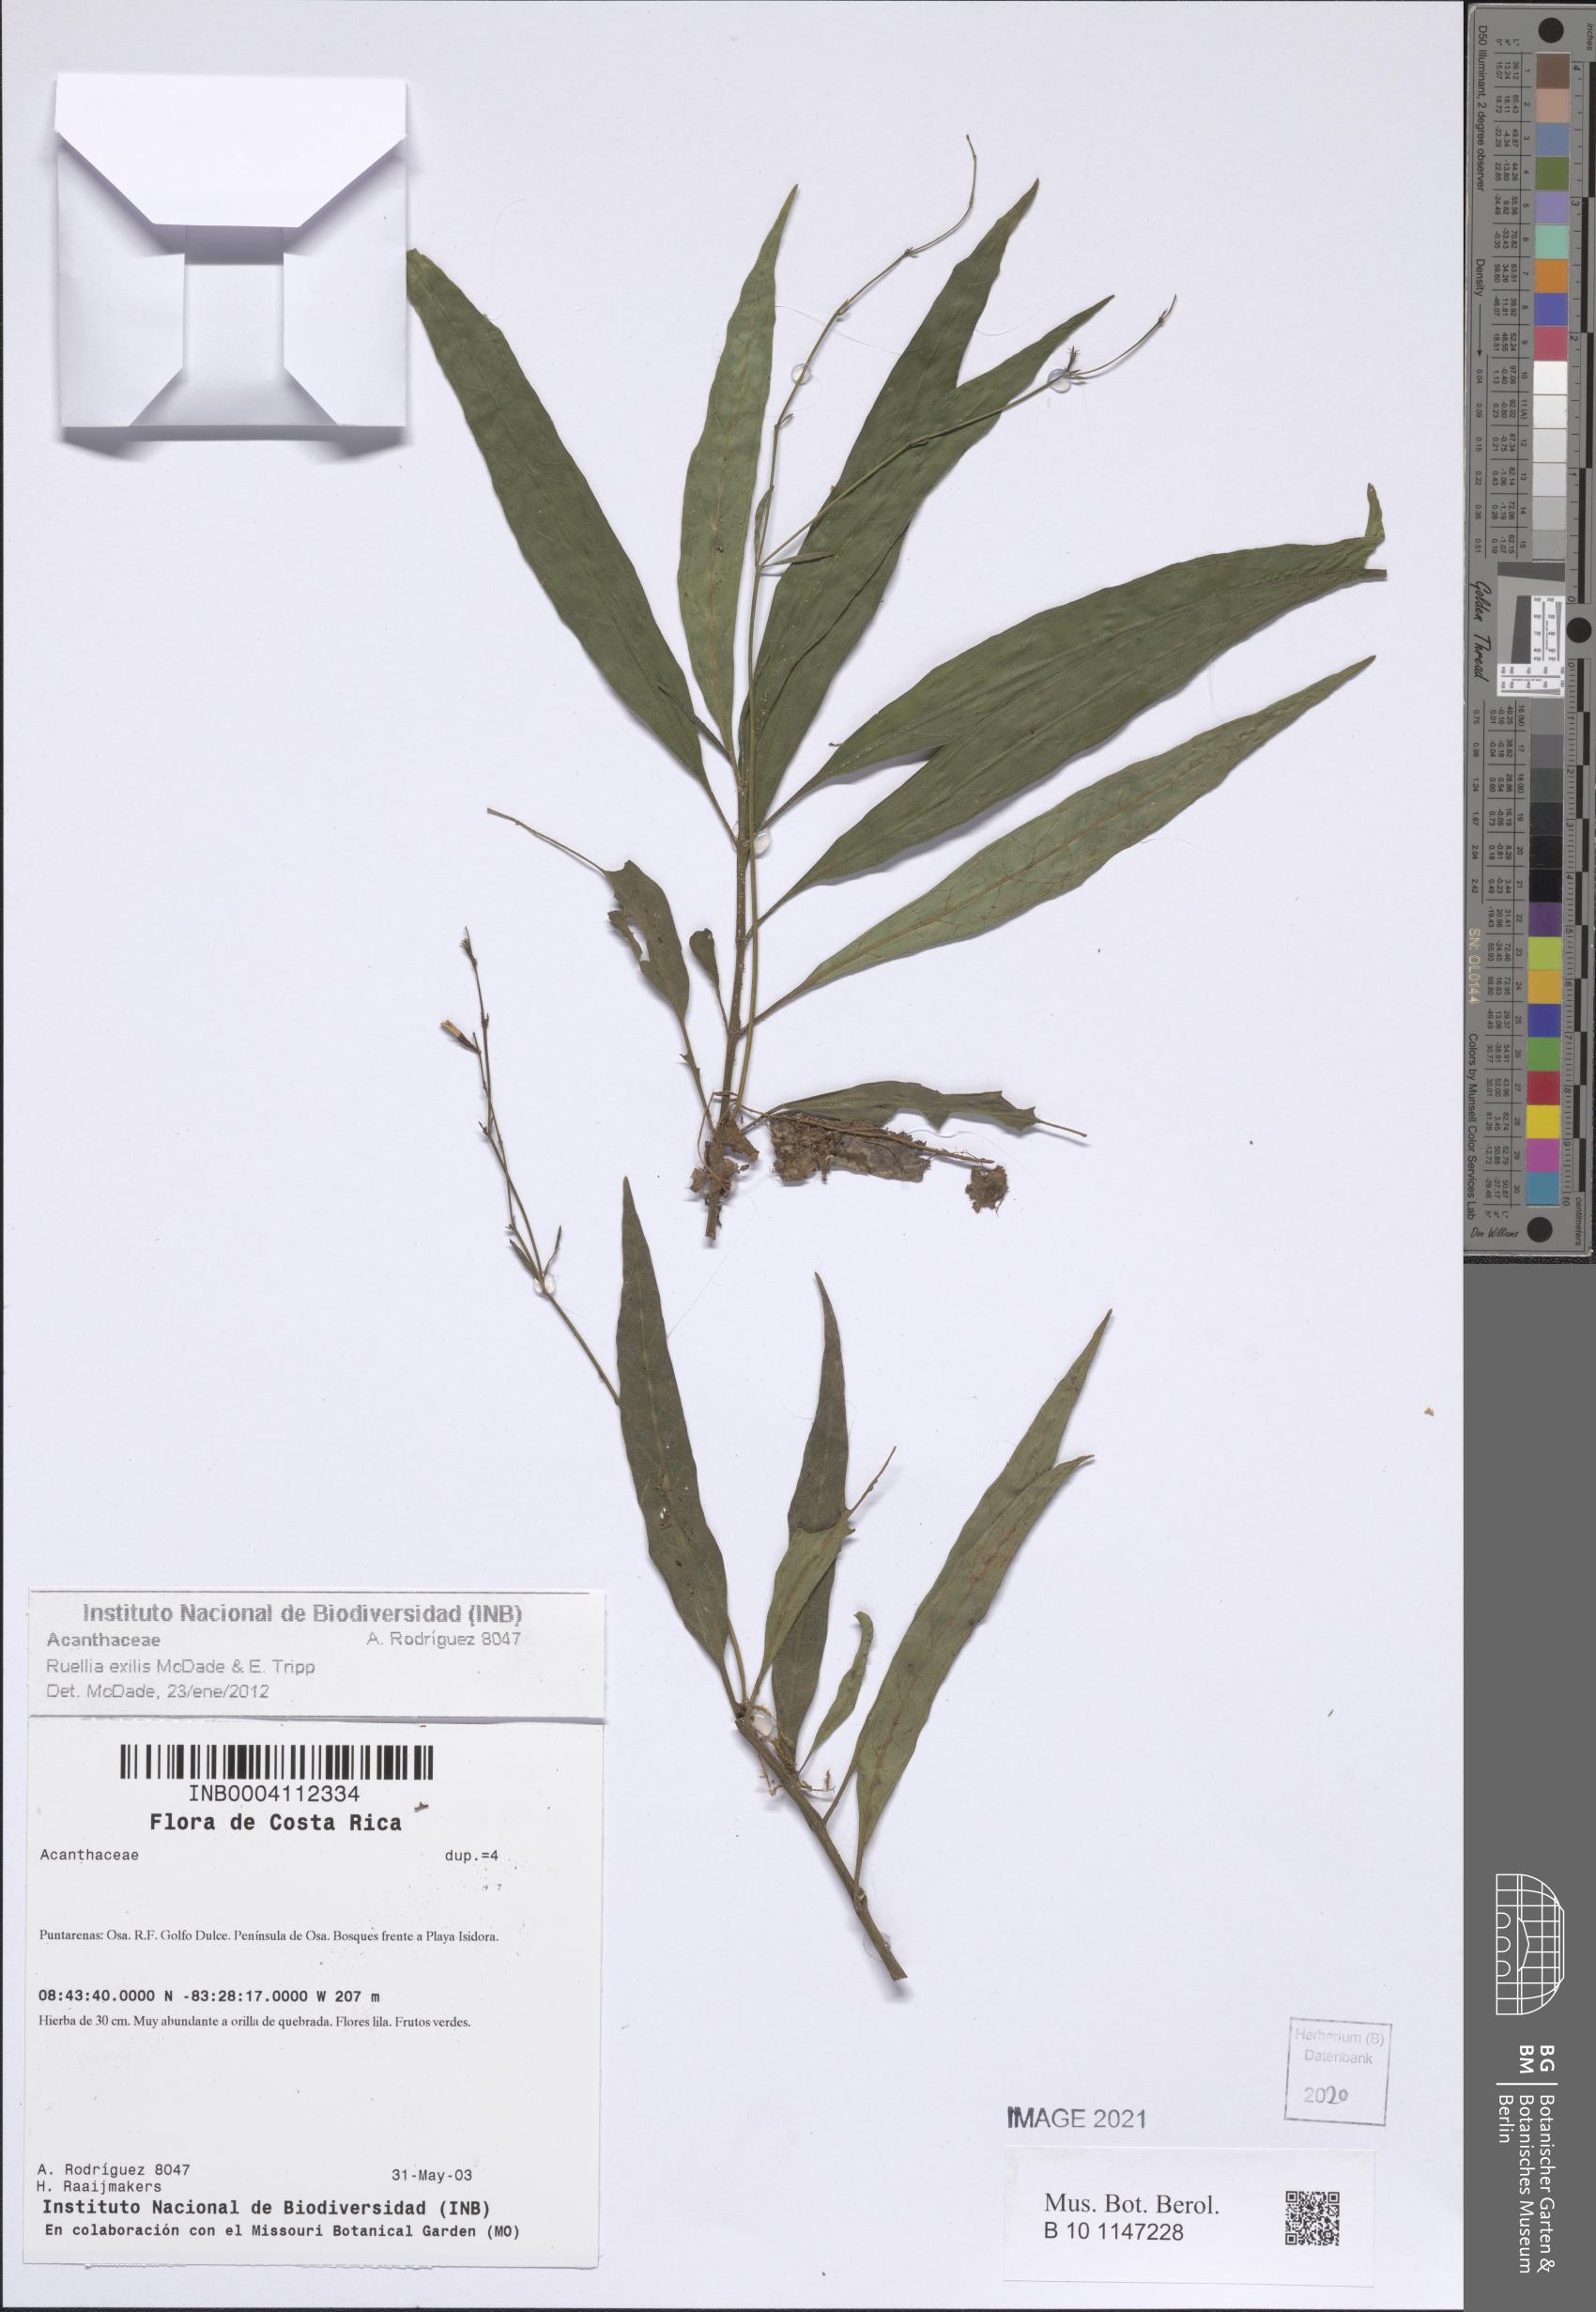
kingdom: Plantae
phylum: Tracheophyta
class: Magnoliopsida
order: Lamiales
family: Acanthaceae
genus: Ruellia
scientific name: Ruellia exilis
